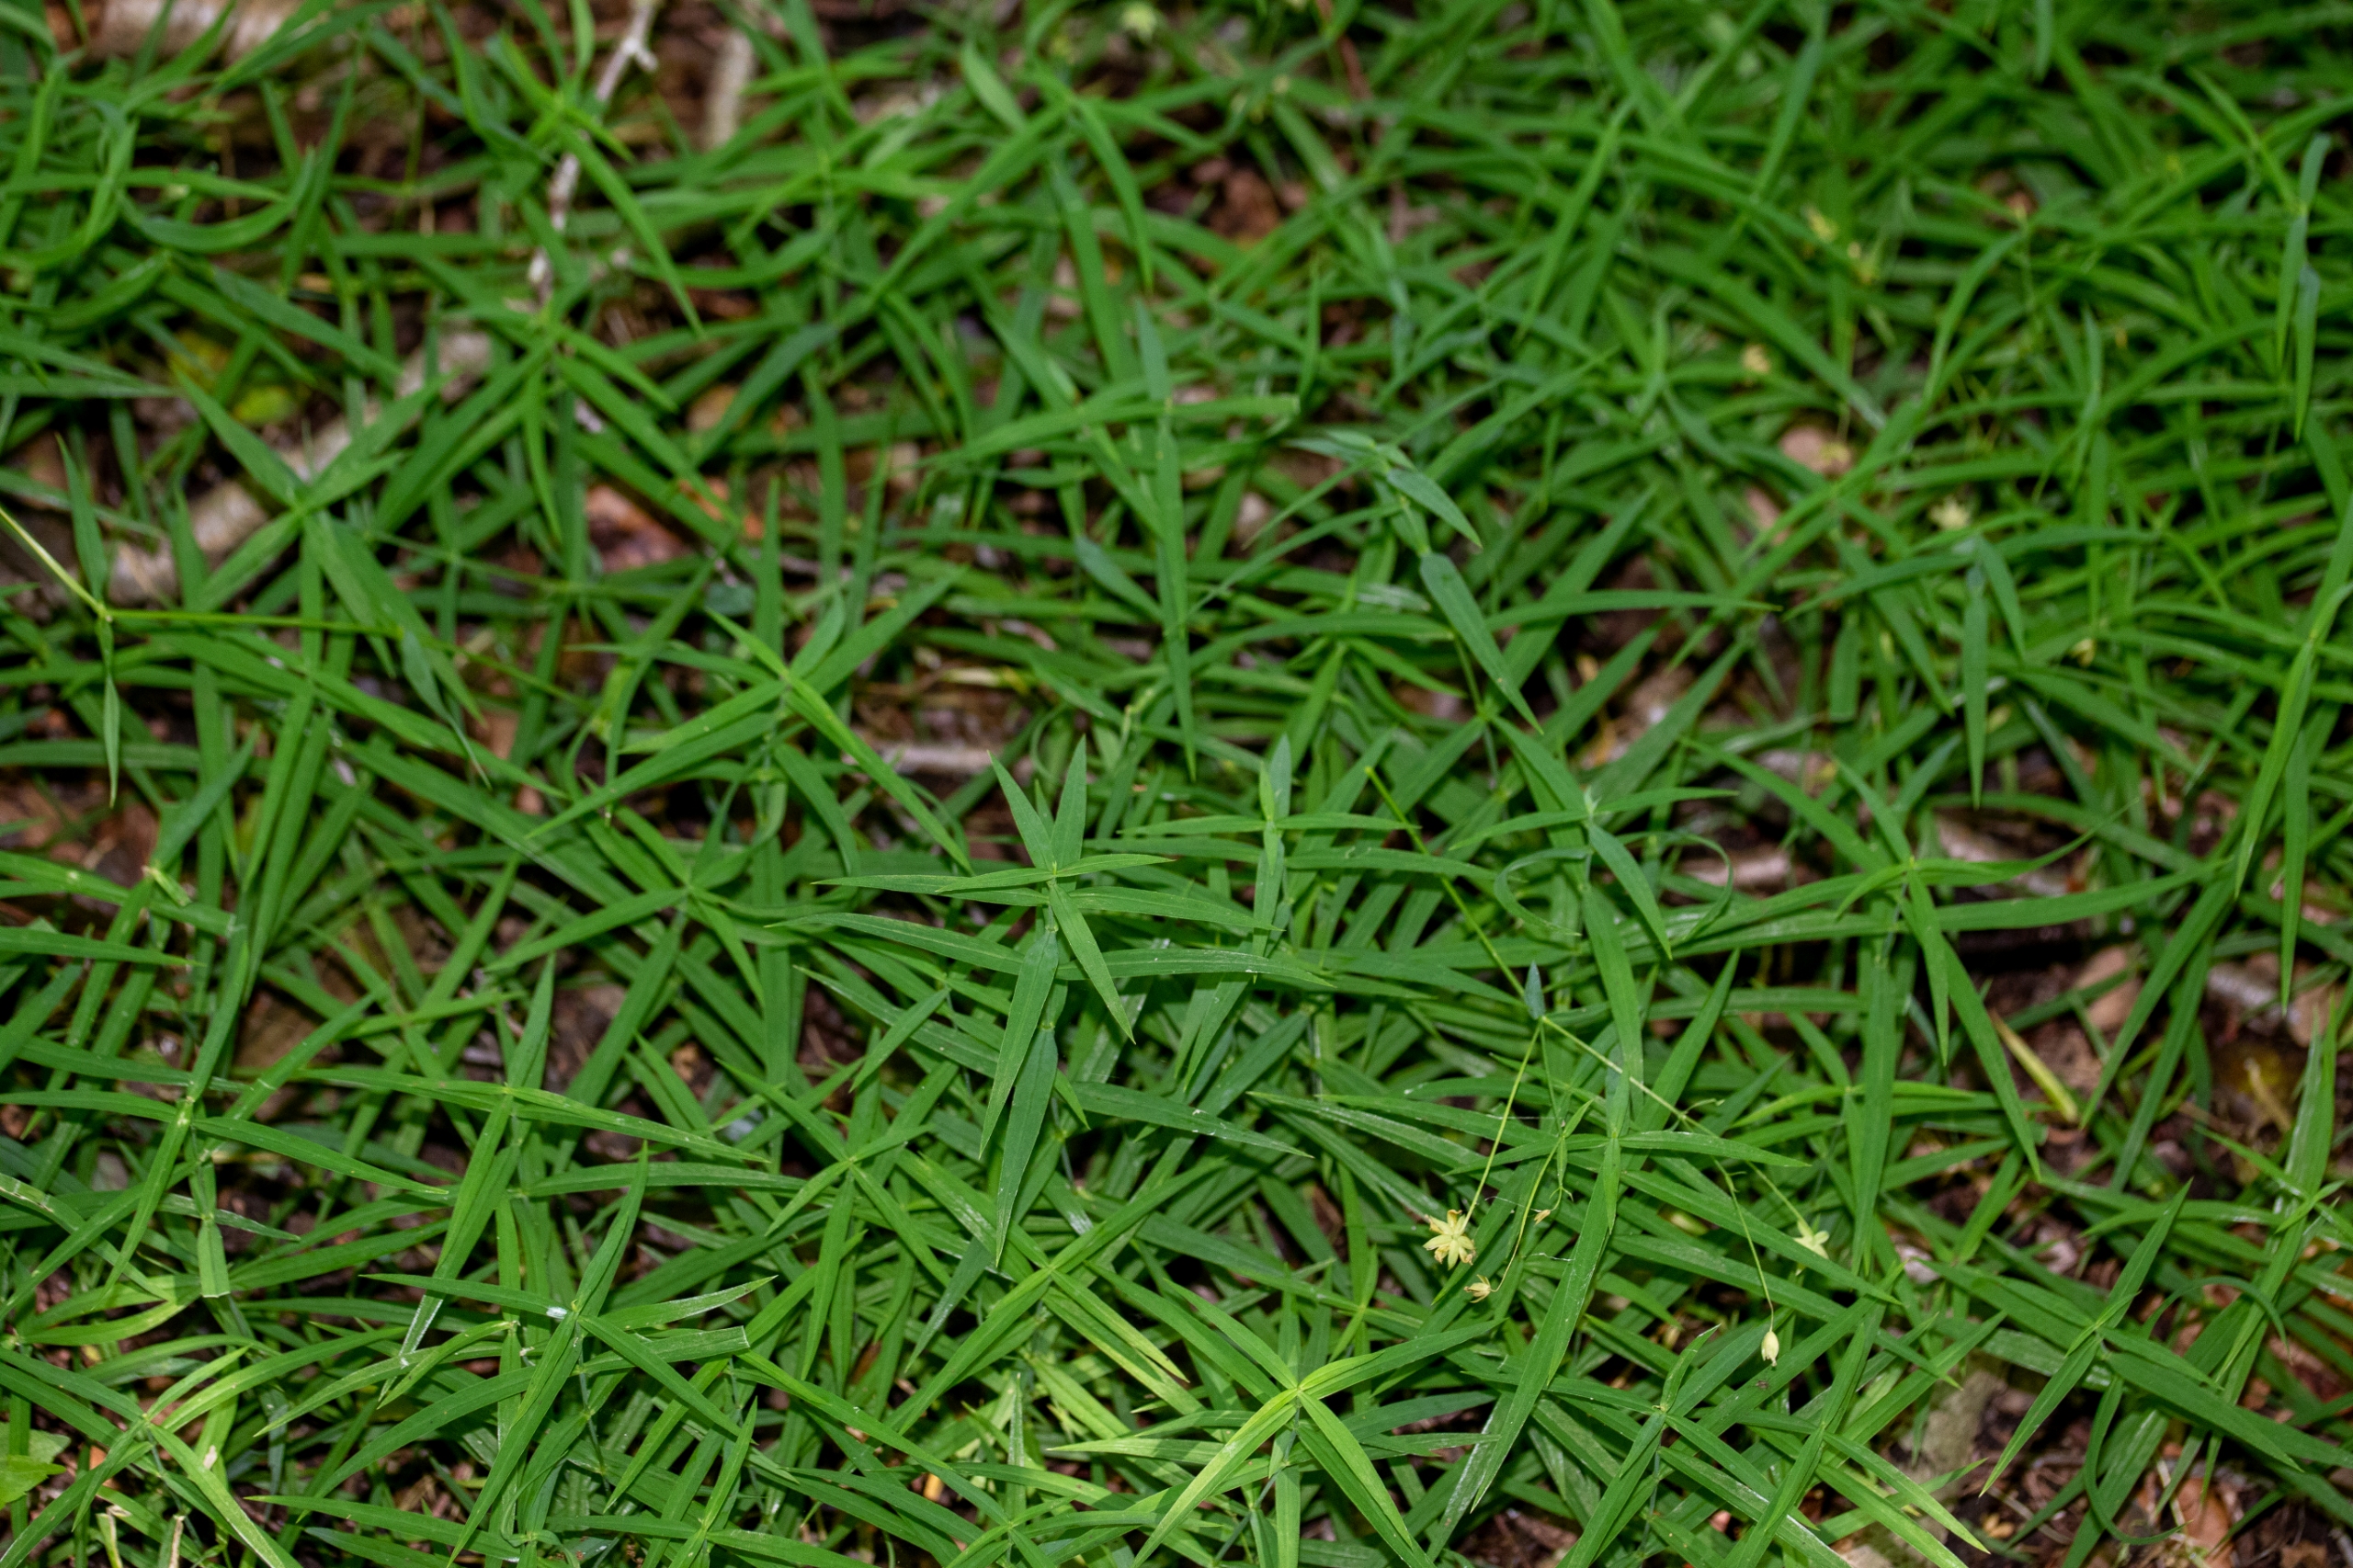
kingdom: Plantae
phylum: Tracheophyta
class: Magnoliopsida
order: Caryophyllales
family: Caryophyllaceae
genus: Rabelera
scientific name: Rabelera holostea
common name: Stor fladstjerne
